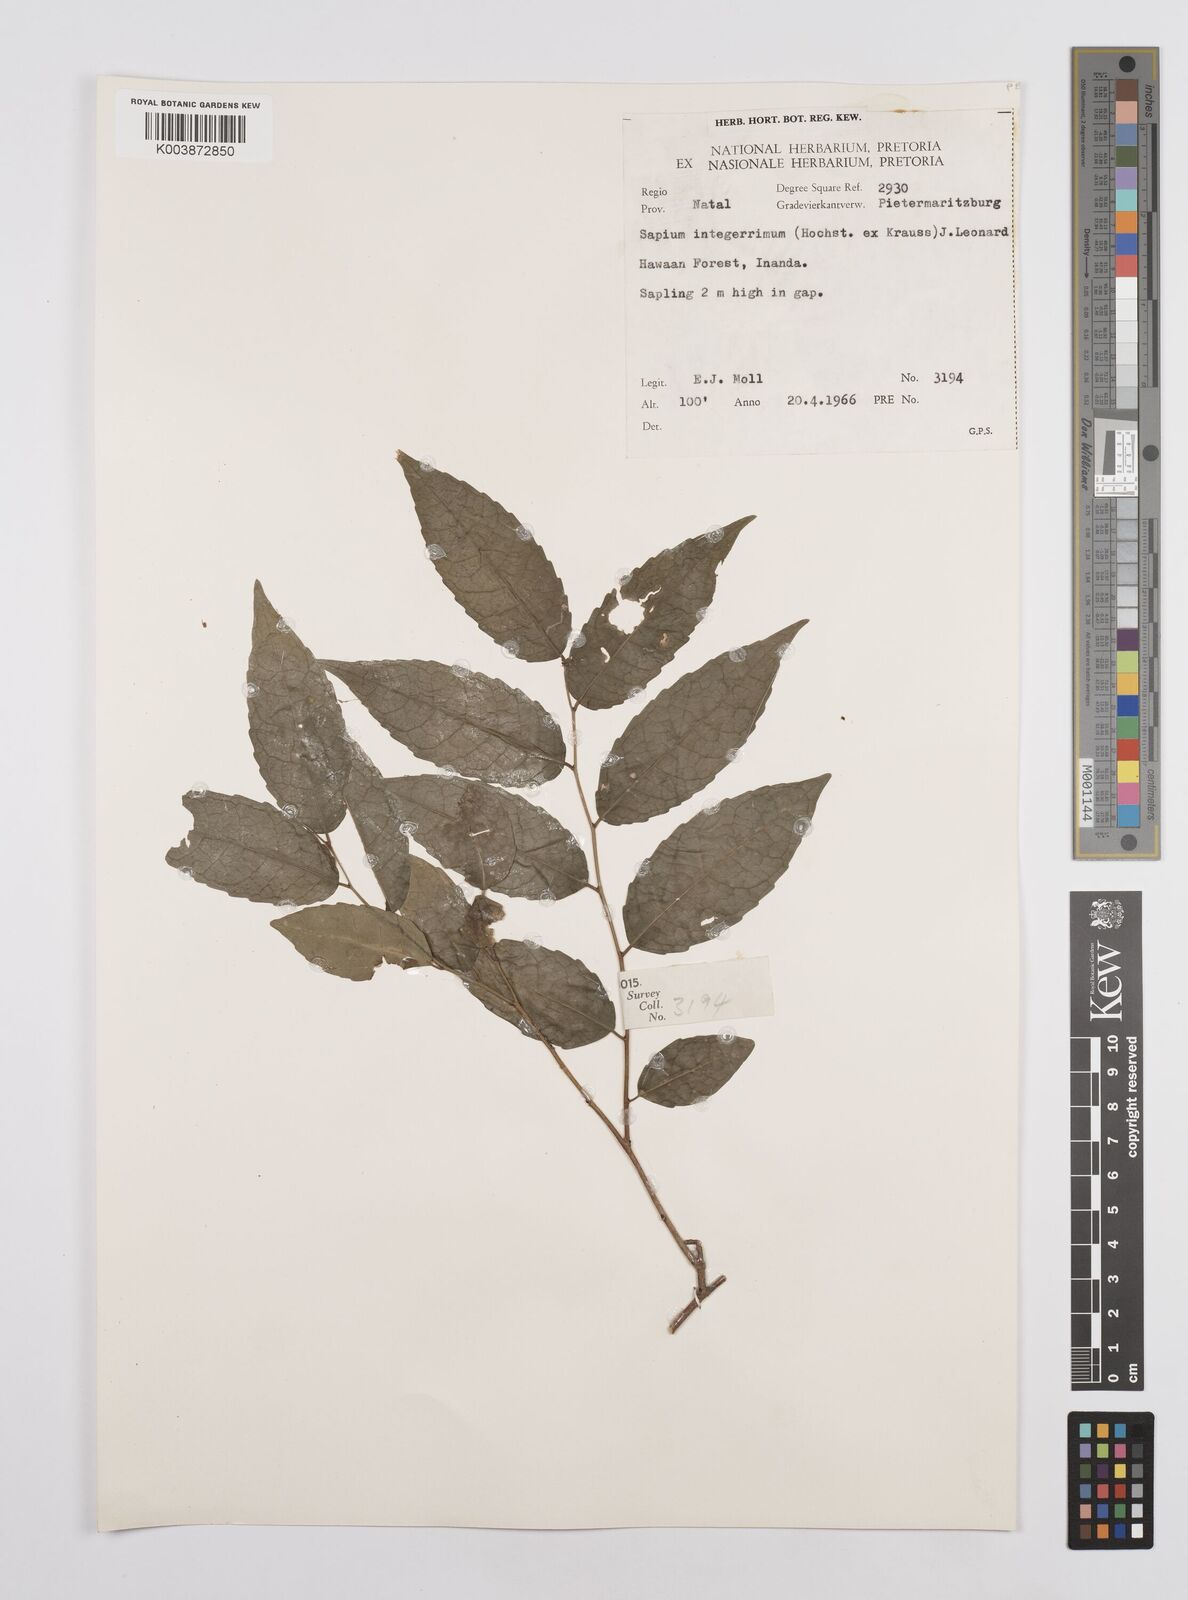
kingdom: Plantae
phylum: Tracheophyta
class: Magnoliopsida
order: Malpighiales
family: Euphorbiaceae
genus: Sclerocroton
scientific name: Sclerocroton integerrimus
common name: Duiker berry
